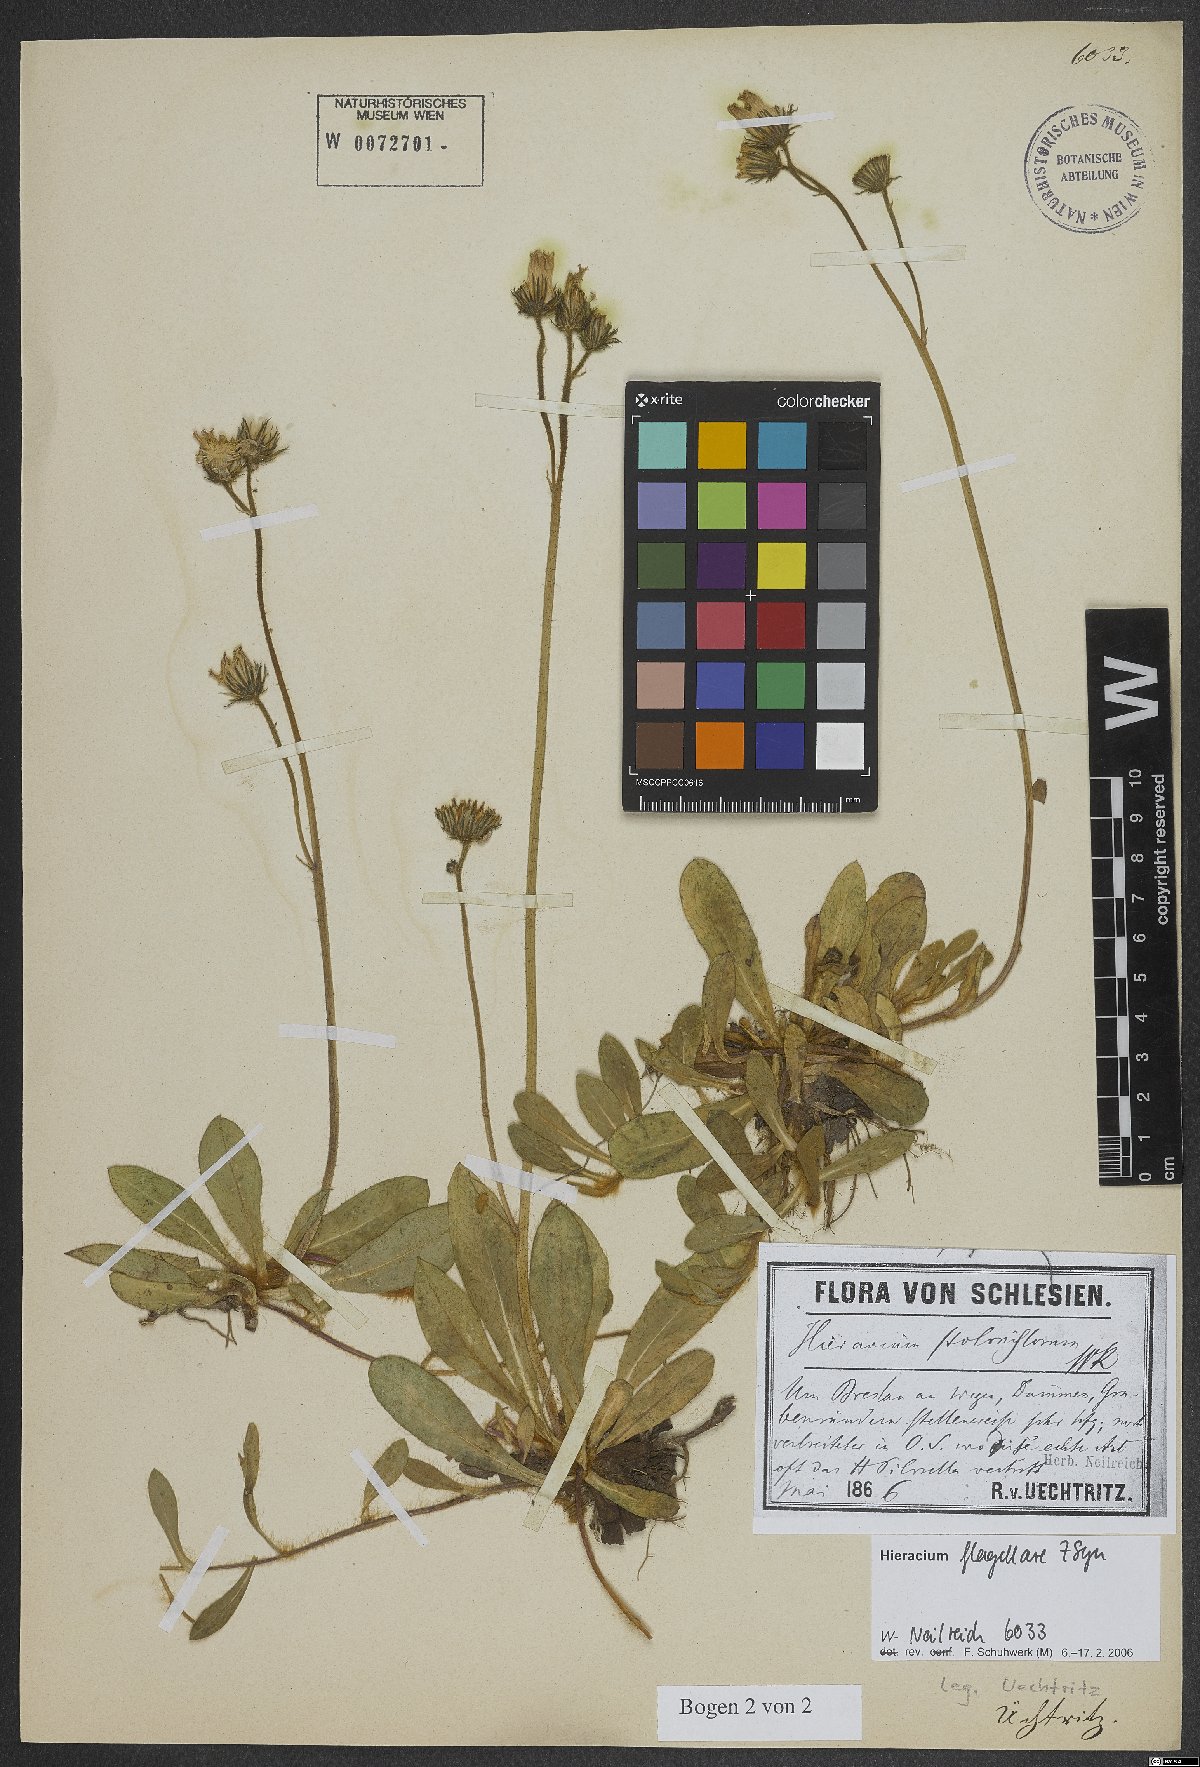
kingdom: Plantae
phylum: Tracheophyta
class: Magnoliopsida
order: Asterales
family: Asteraceae
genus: Pilosella
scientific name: Pilosella
